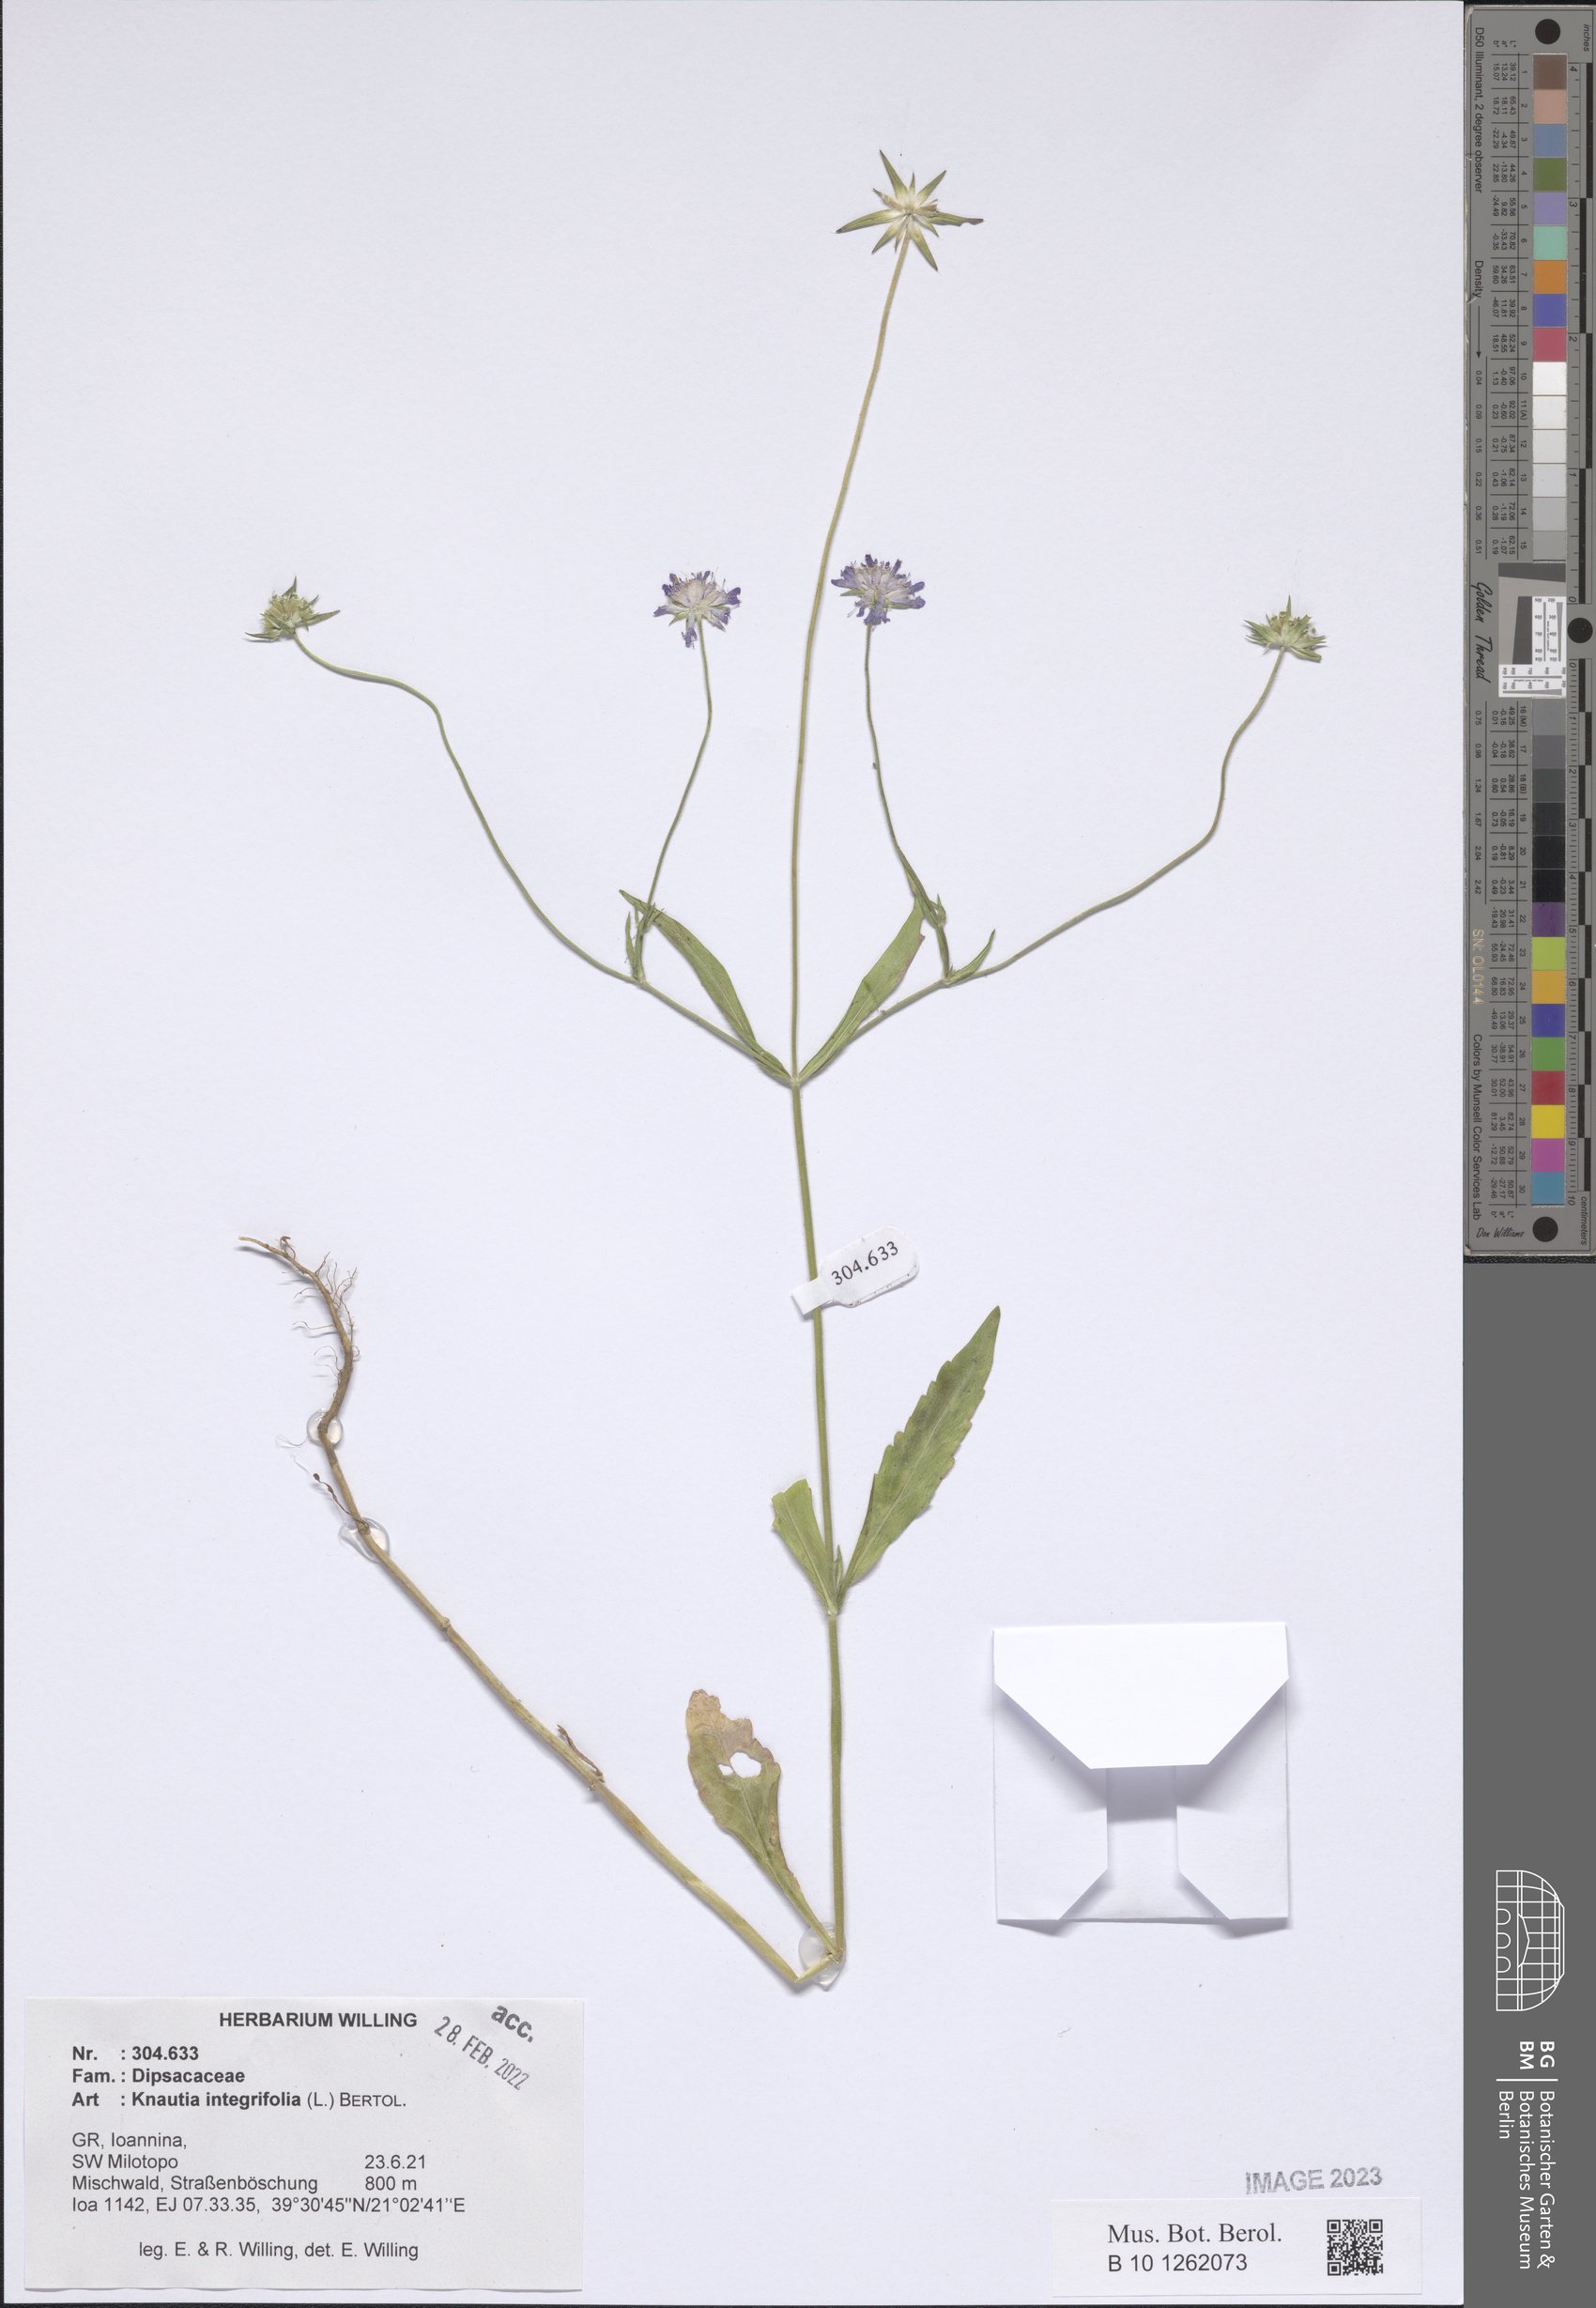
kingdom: Plantae
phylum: Tracheophyta
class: Magnoliopsida
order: Dipsacales
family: Caprifoliaceae
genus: Knautia
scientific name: Knautia integrifolia
